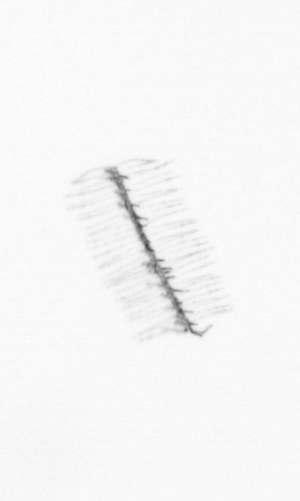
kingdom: Chromista
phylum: Ochrophyta
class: Bacillariophyceae
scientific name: Bacillariophyceae
